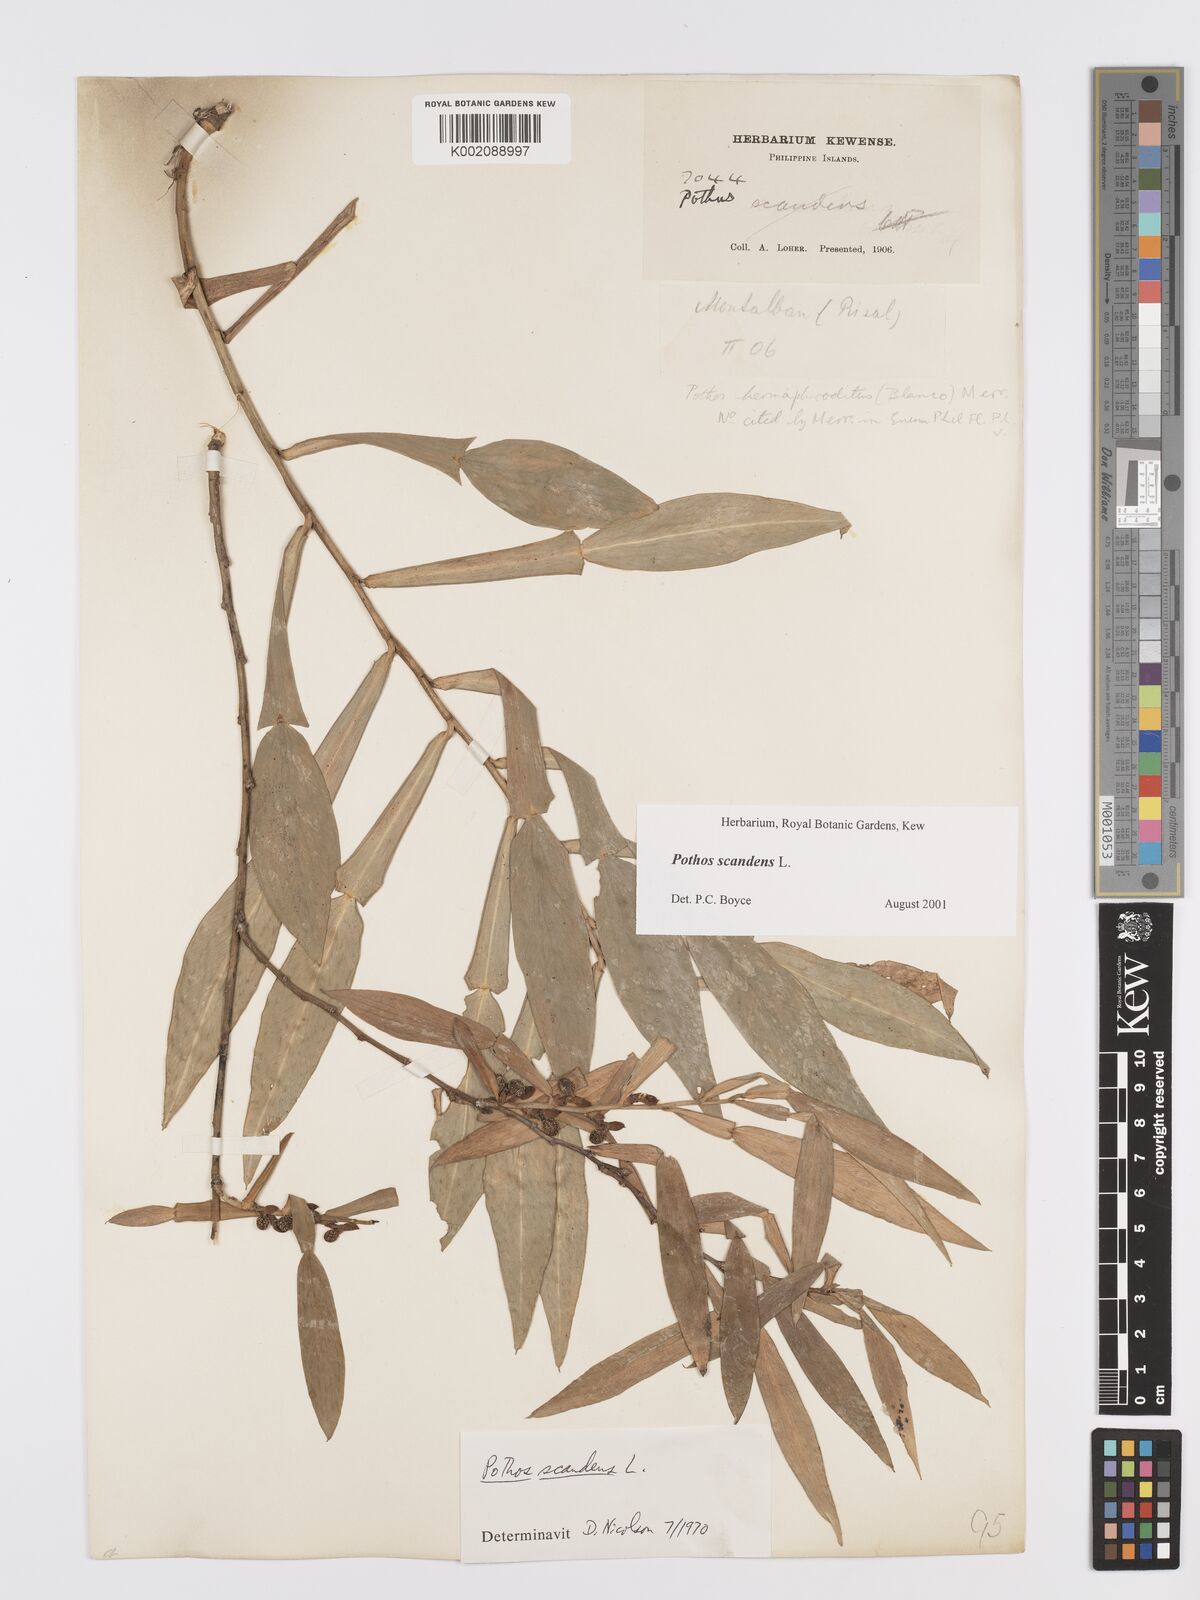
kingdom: Plantae
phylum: Tracheophyta
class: Liliopsida
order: Alismatales
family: Araceae
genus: Pothos
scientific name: Pothos scandens
